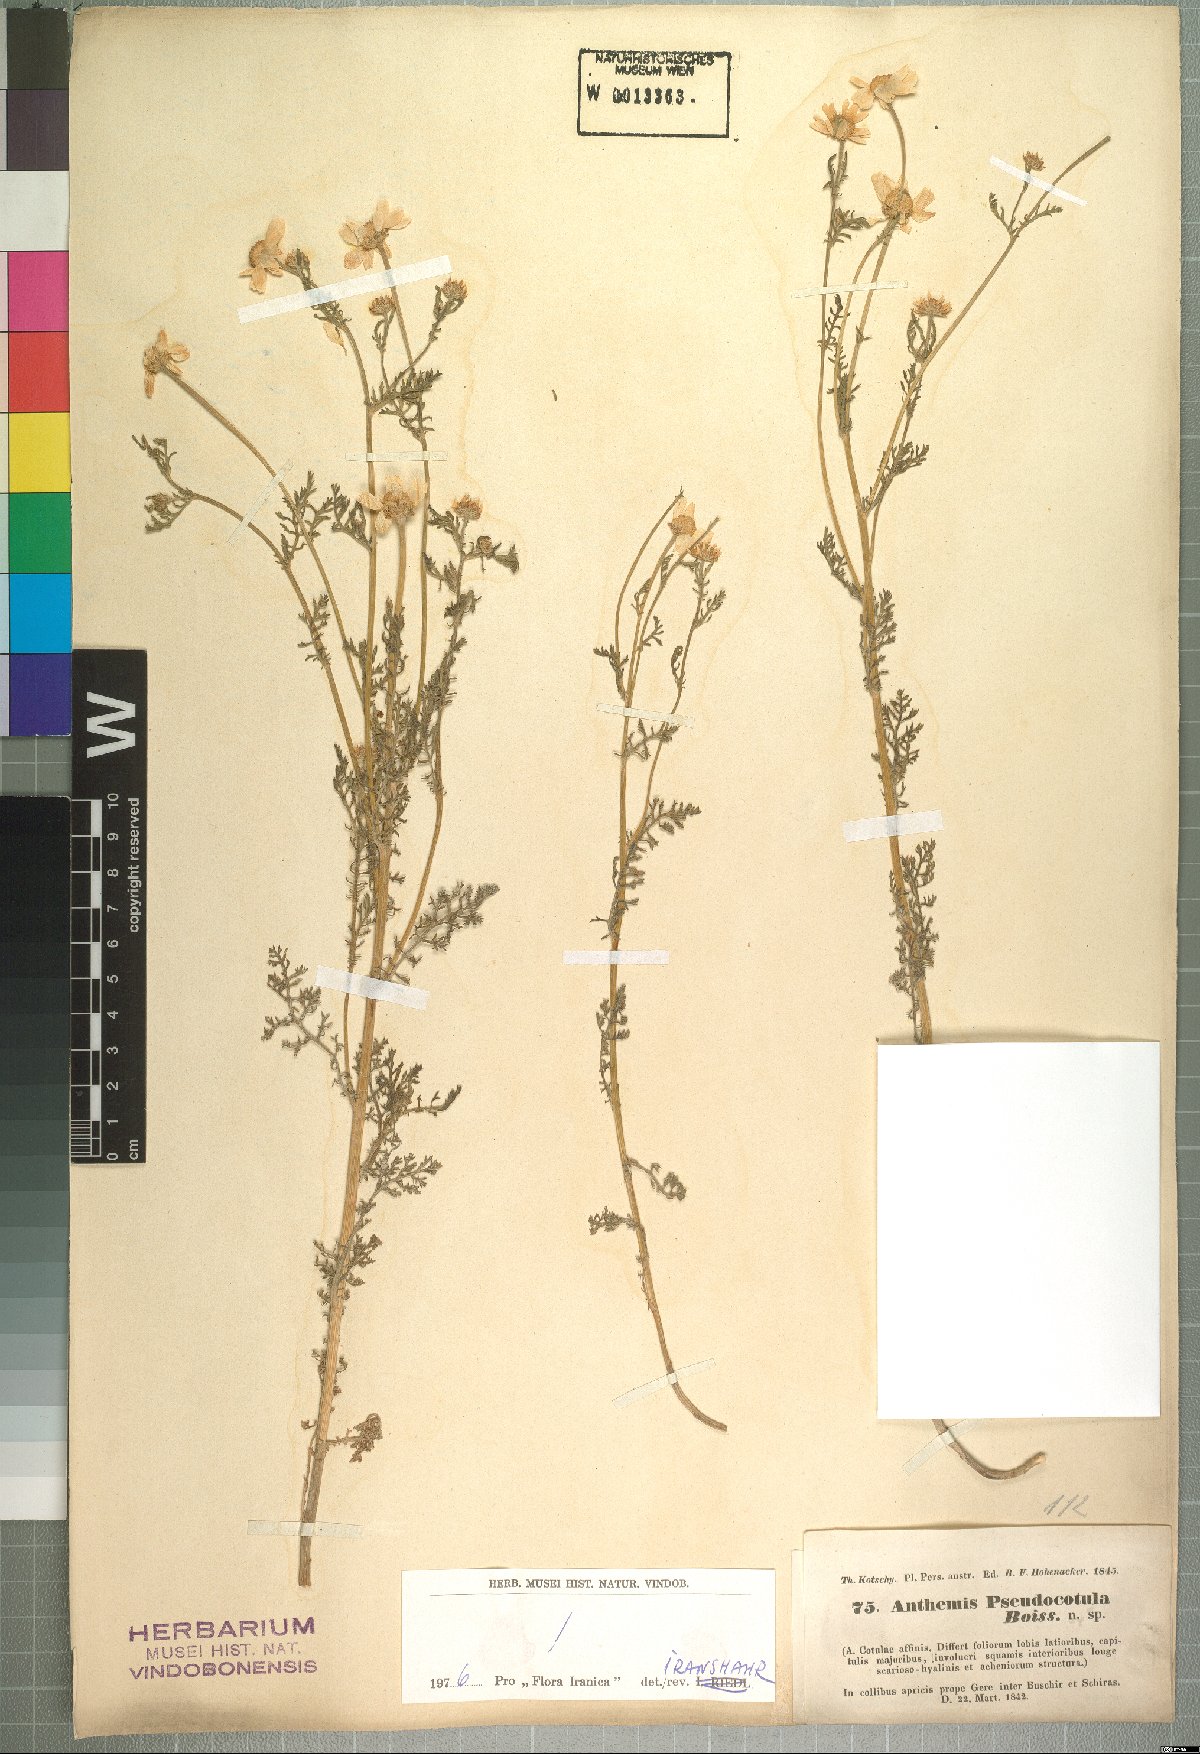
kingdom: Plantae
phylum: Tracheophyta
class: Magnoliopsida
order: Asterales
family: Asteraceae
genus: Anthemis
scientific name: Anthemis pseudocotula
